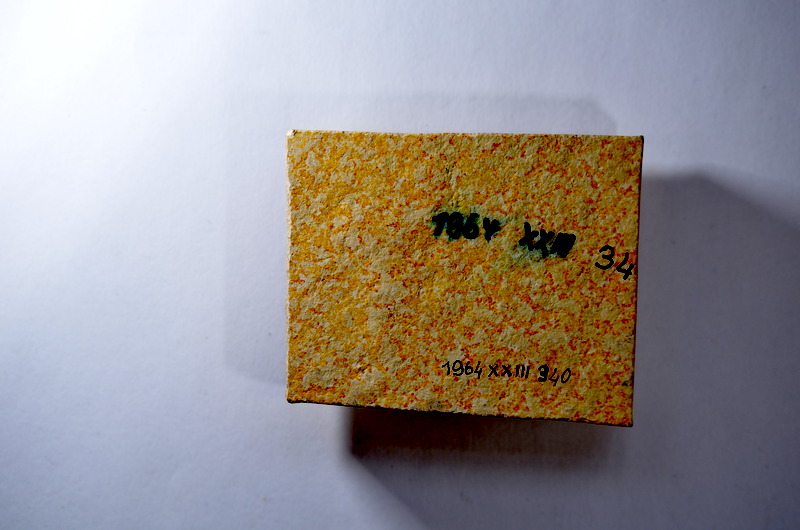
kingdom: Animalia
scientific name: Animalia
